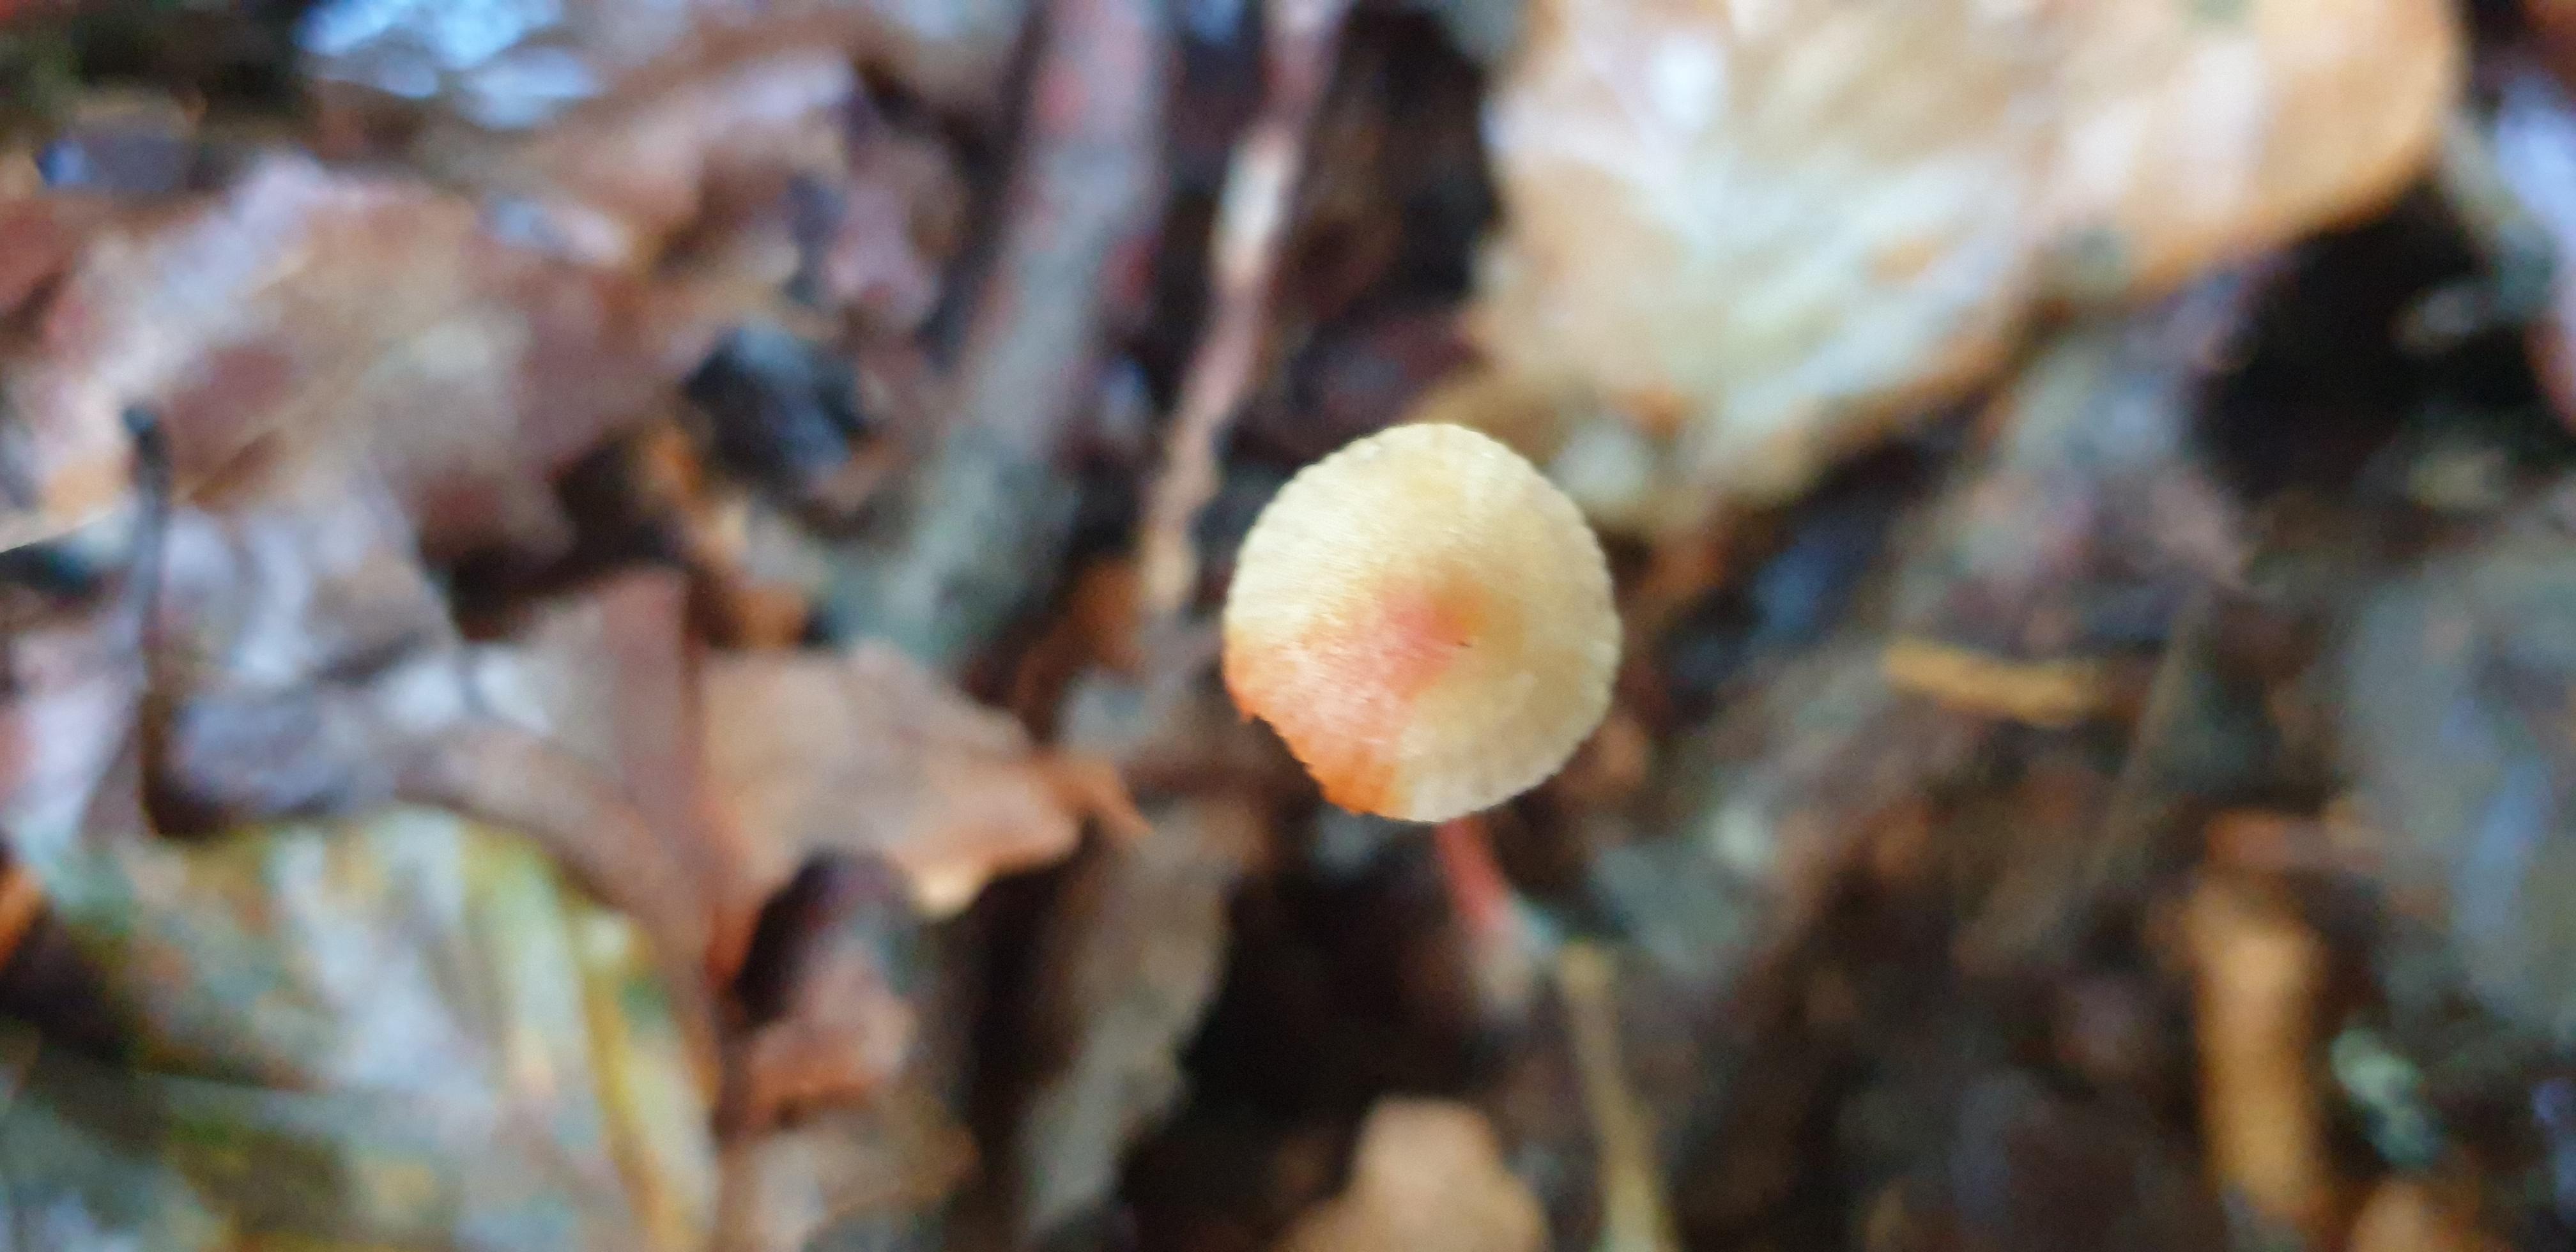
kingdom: Fungi
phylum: Basidiomycota
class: Agaricomycetes
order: Agaricales
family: Mycenaceae
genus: Mycena
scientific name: Mycena crocata
